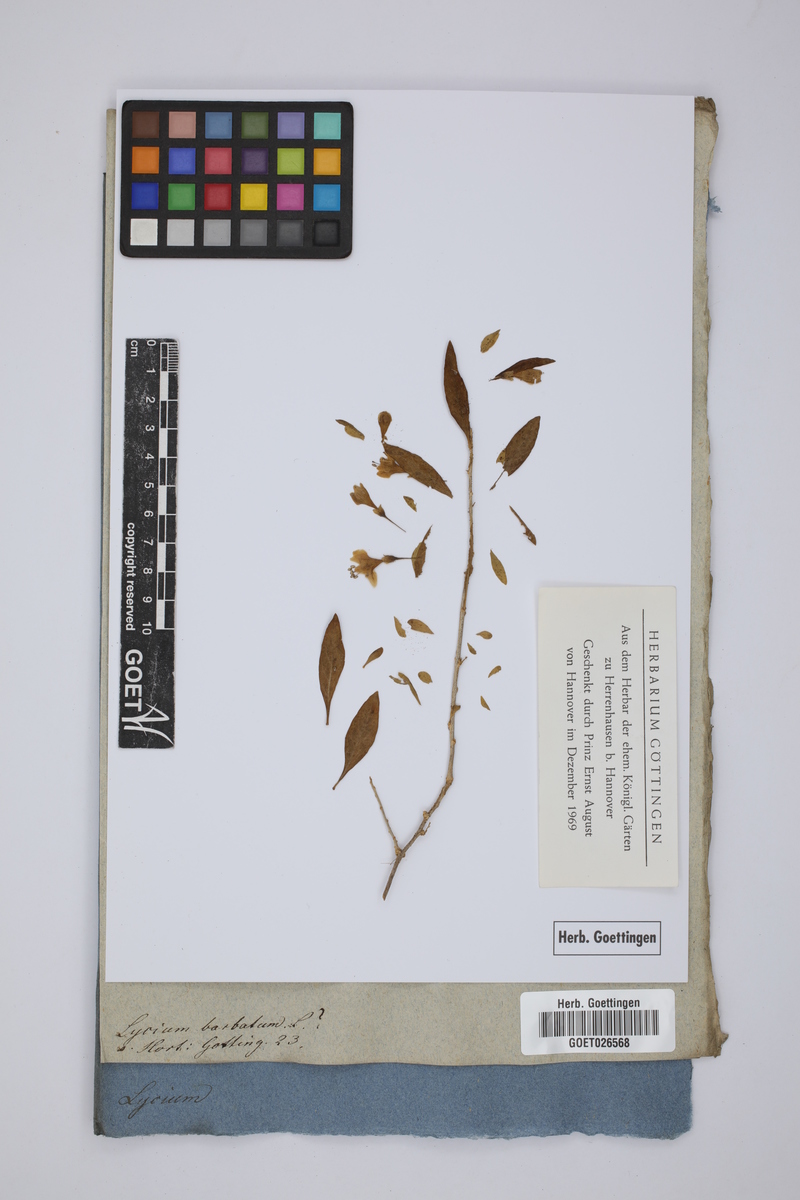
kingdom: Plantae
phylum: Tracheophyta
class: Magnoliopsida
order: Solanales
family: Solanaceae
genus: Lycium
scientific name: Lycium barbarum
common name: Duke of argyll's teaplant
